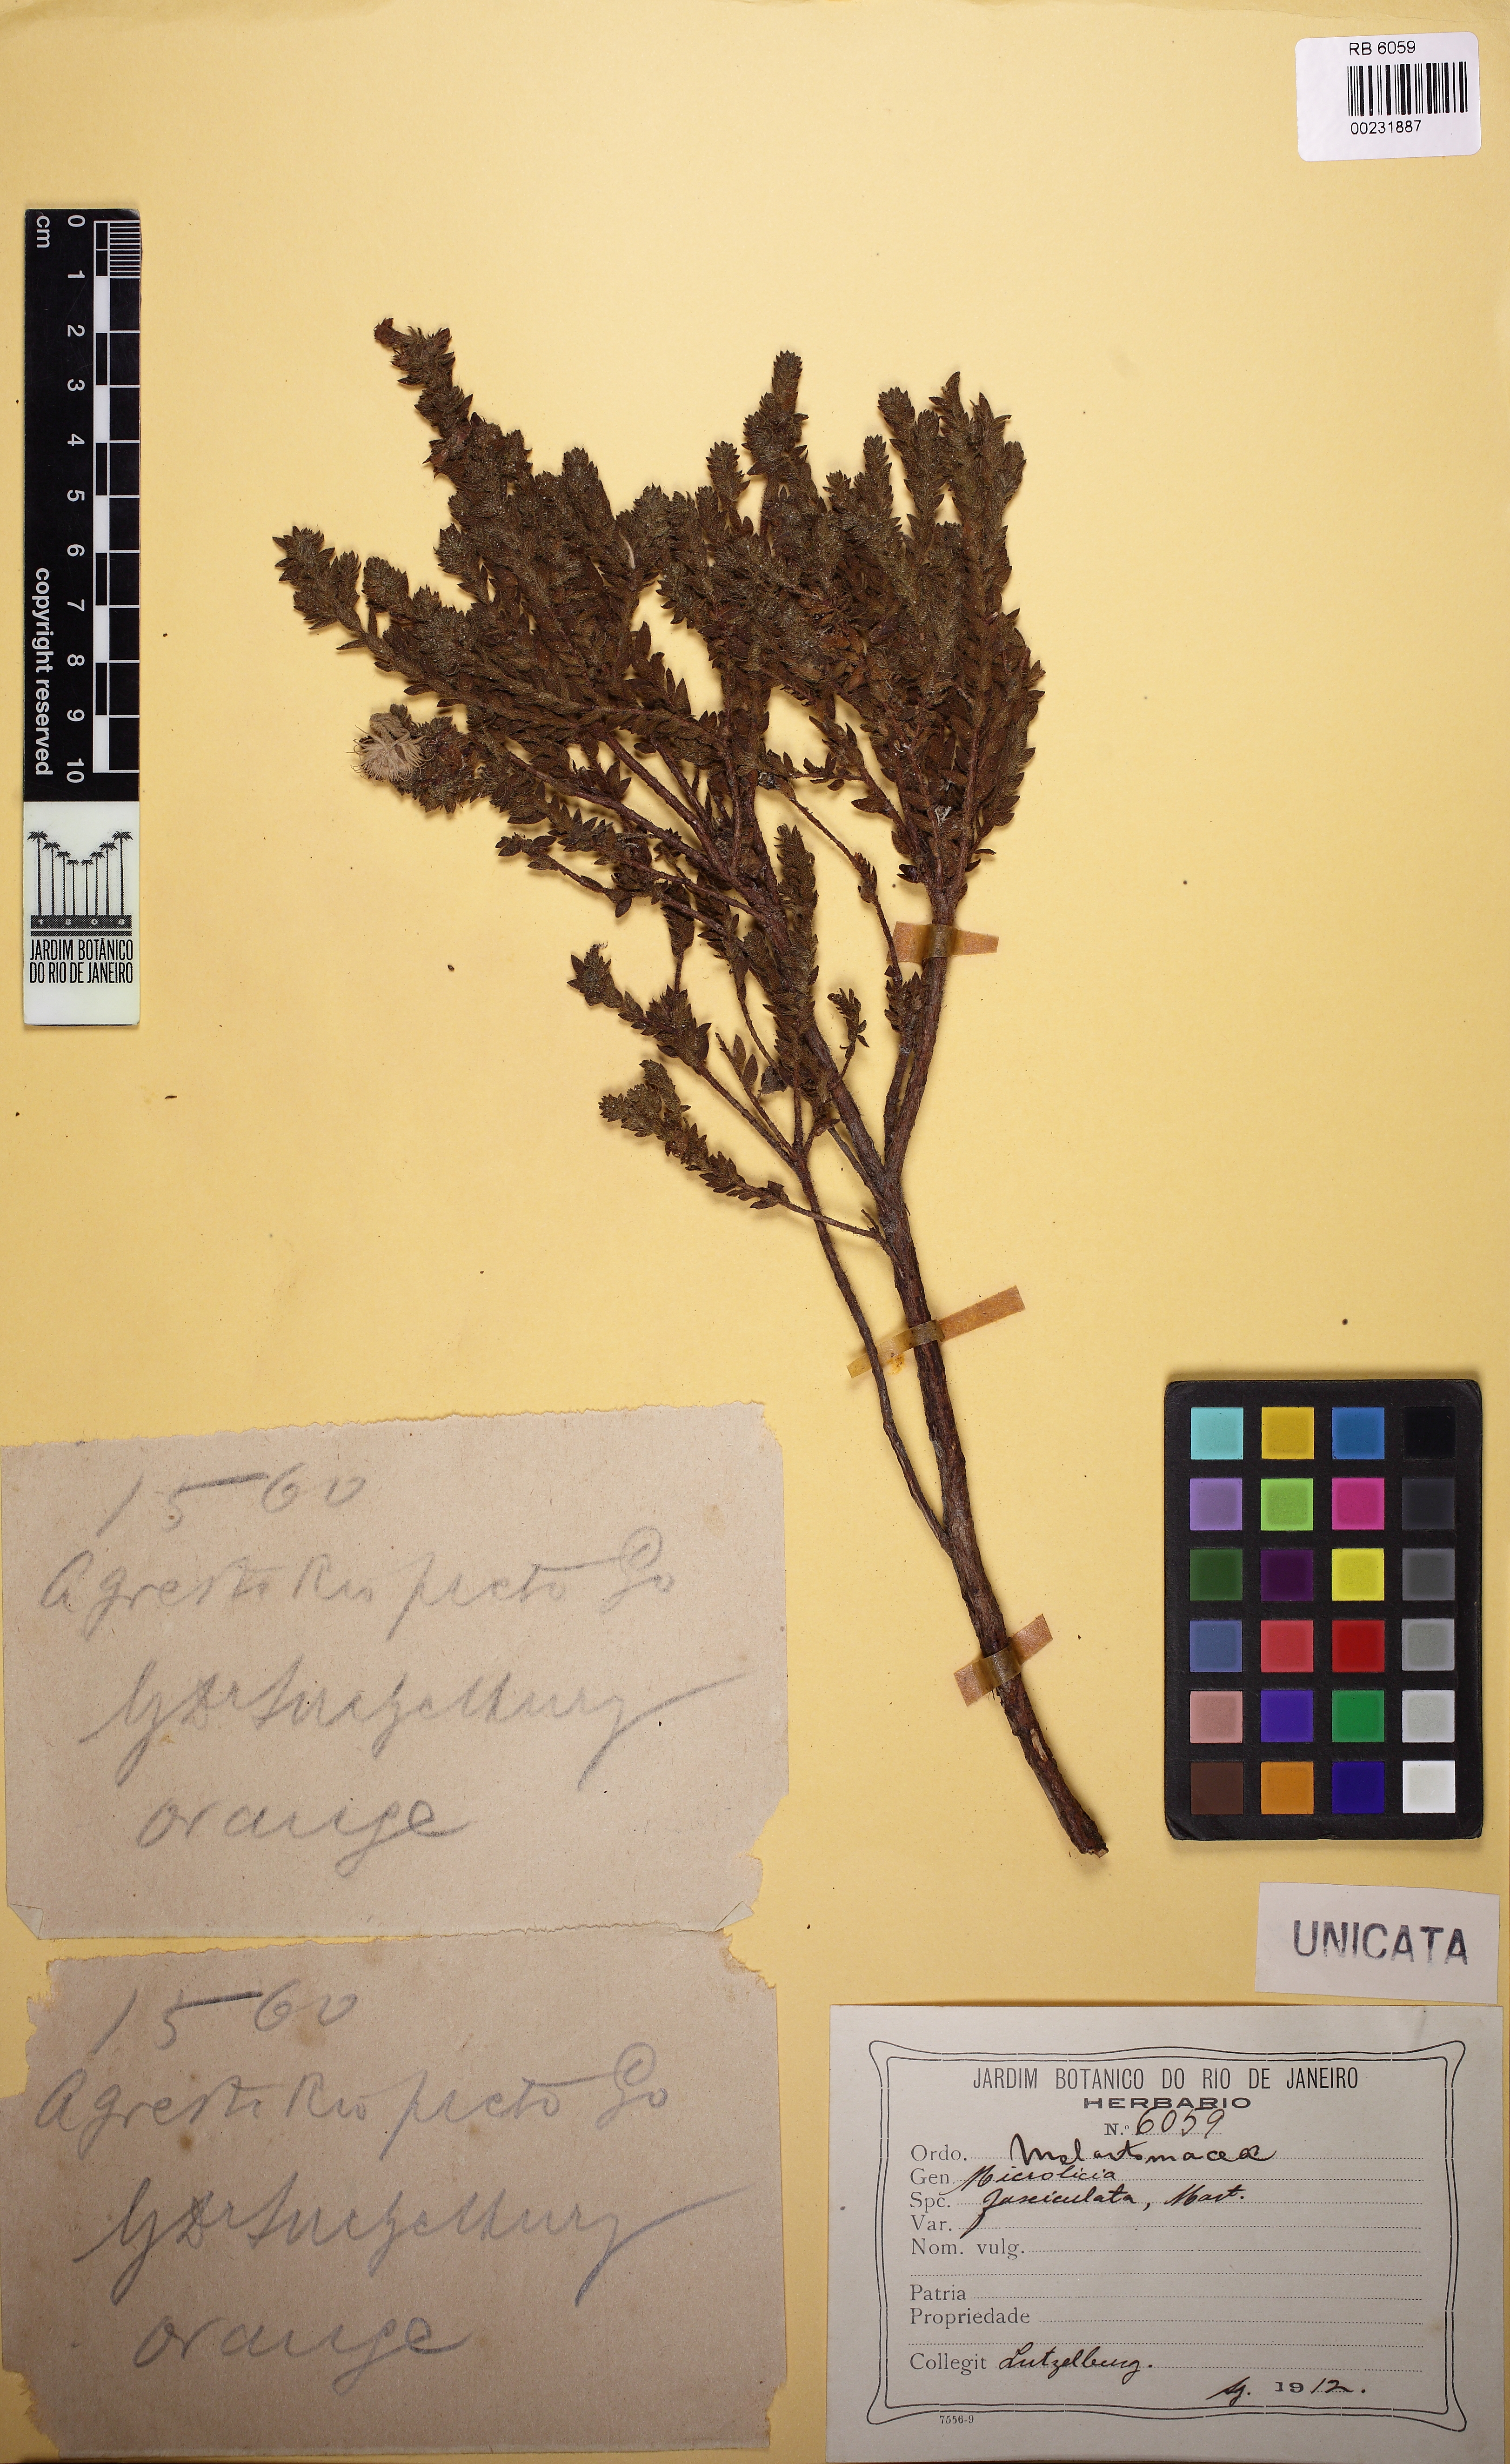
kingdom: Plantae
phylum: Tracheophyta
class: Magnoliopsida
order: Myrtales
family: Melastomataceae
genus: Microlicia
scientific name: Microlicia hirsuta
